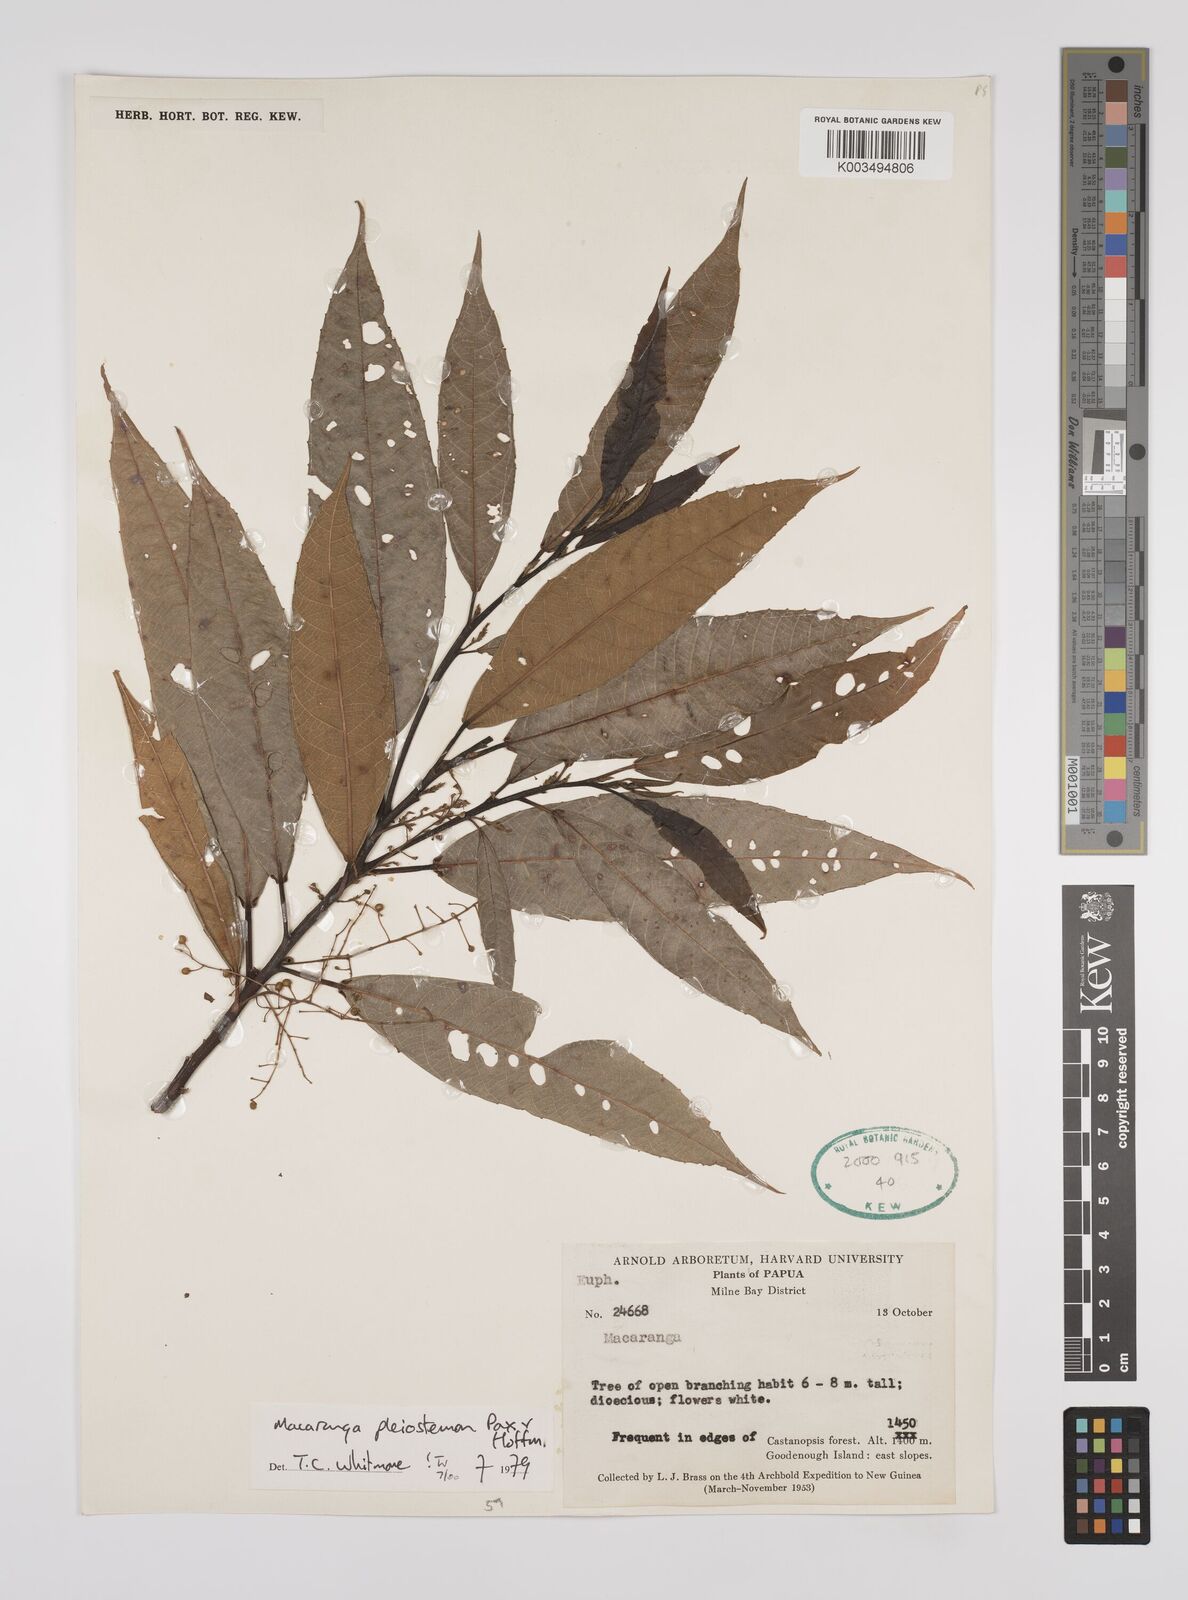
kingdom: Plantae
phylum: Tracheophyta
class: Magnoliopsida
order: Malpighiales
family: Euphorbiaceae
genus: Macaranga
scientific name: Macaranga pleiostemon
